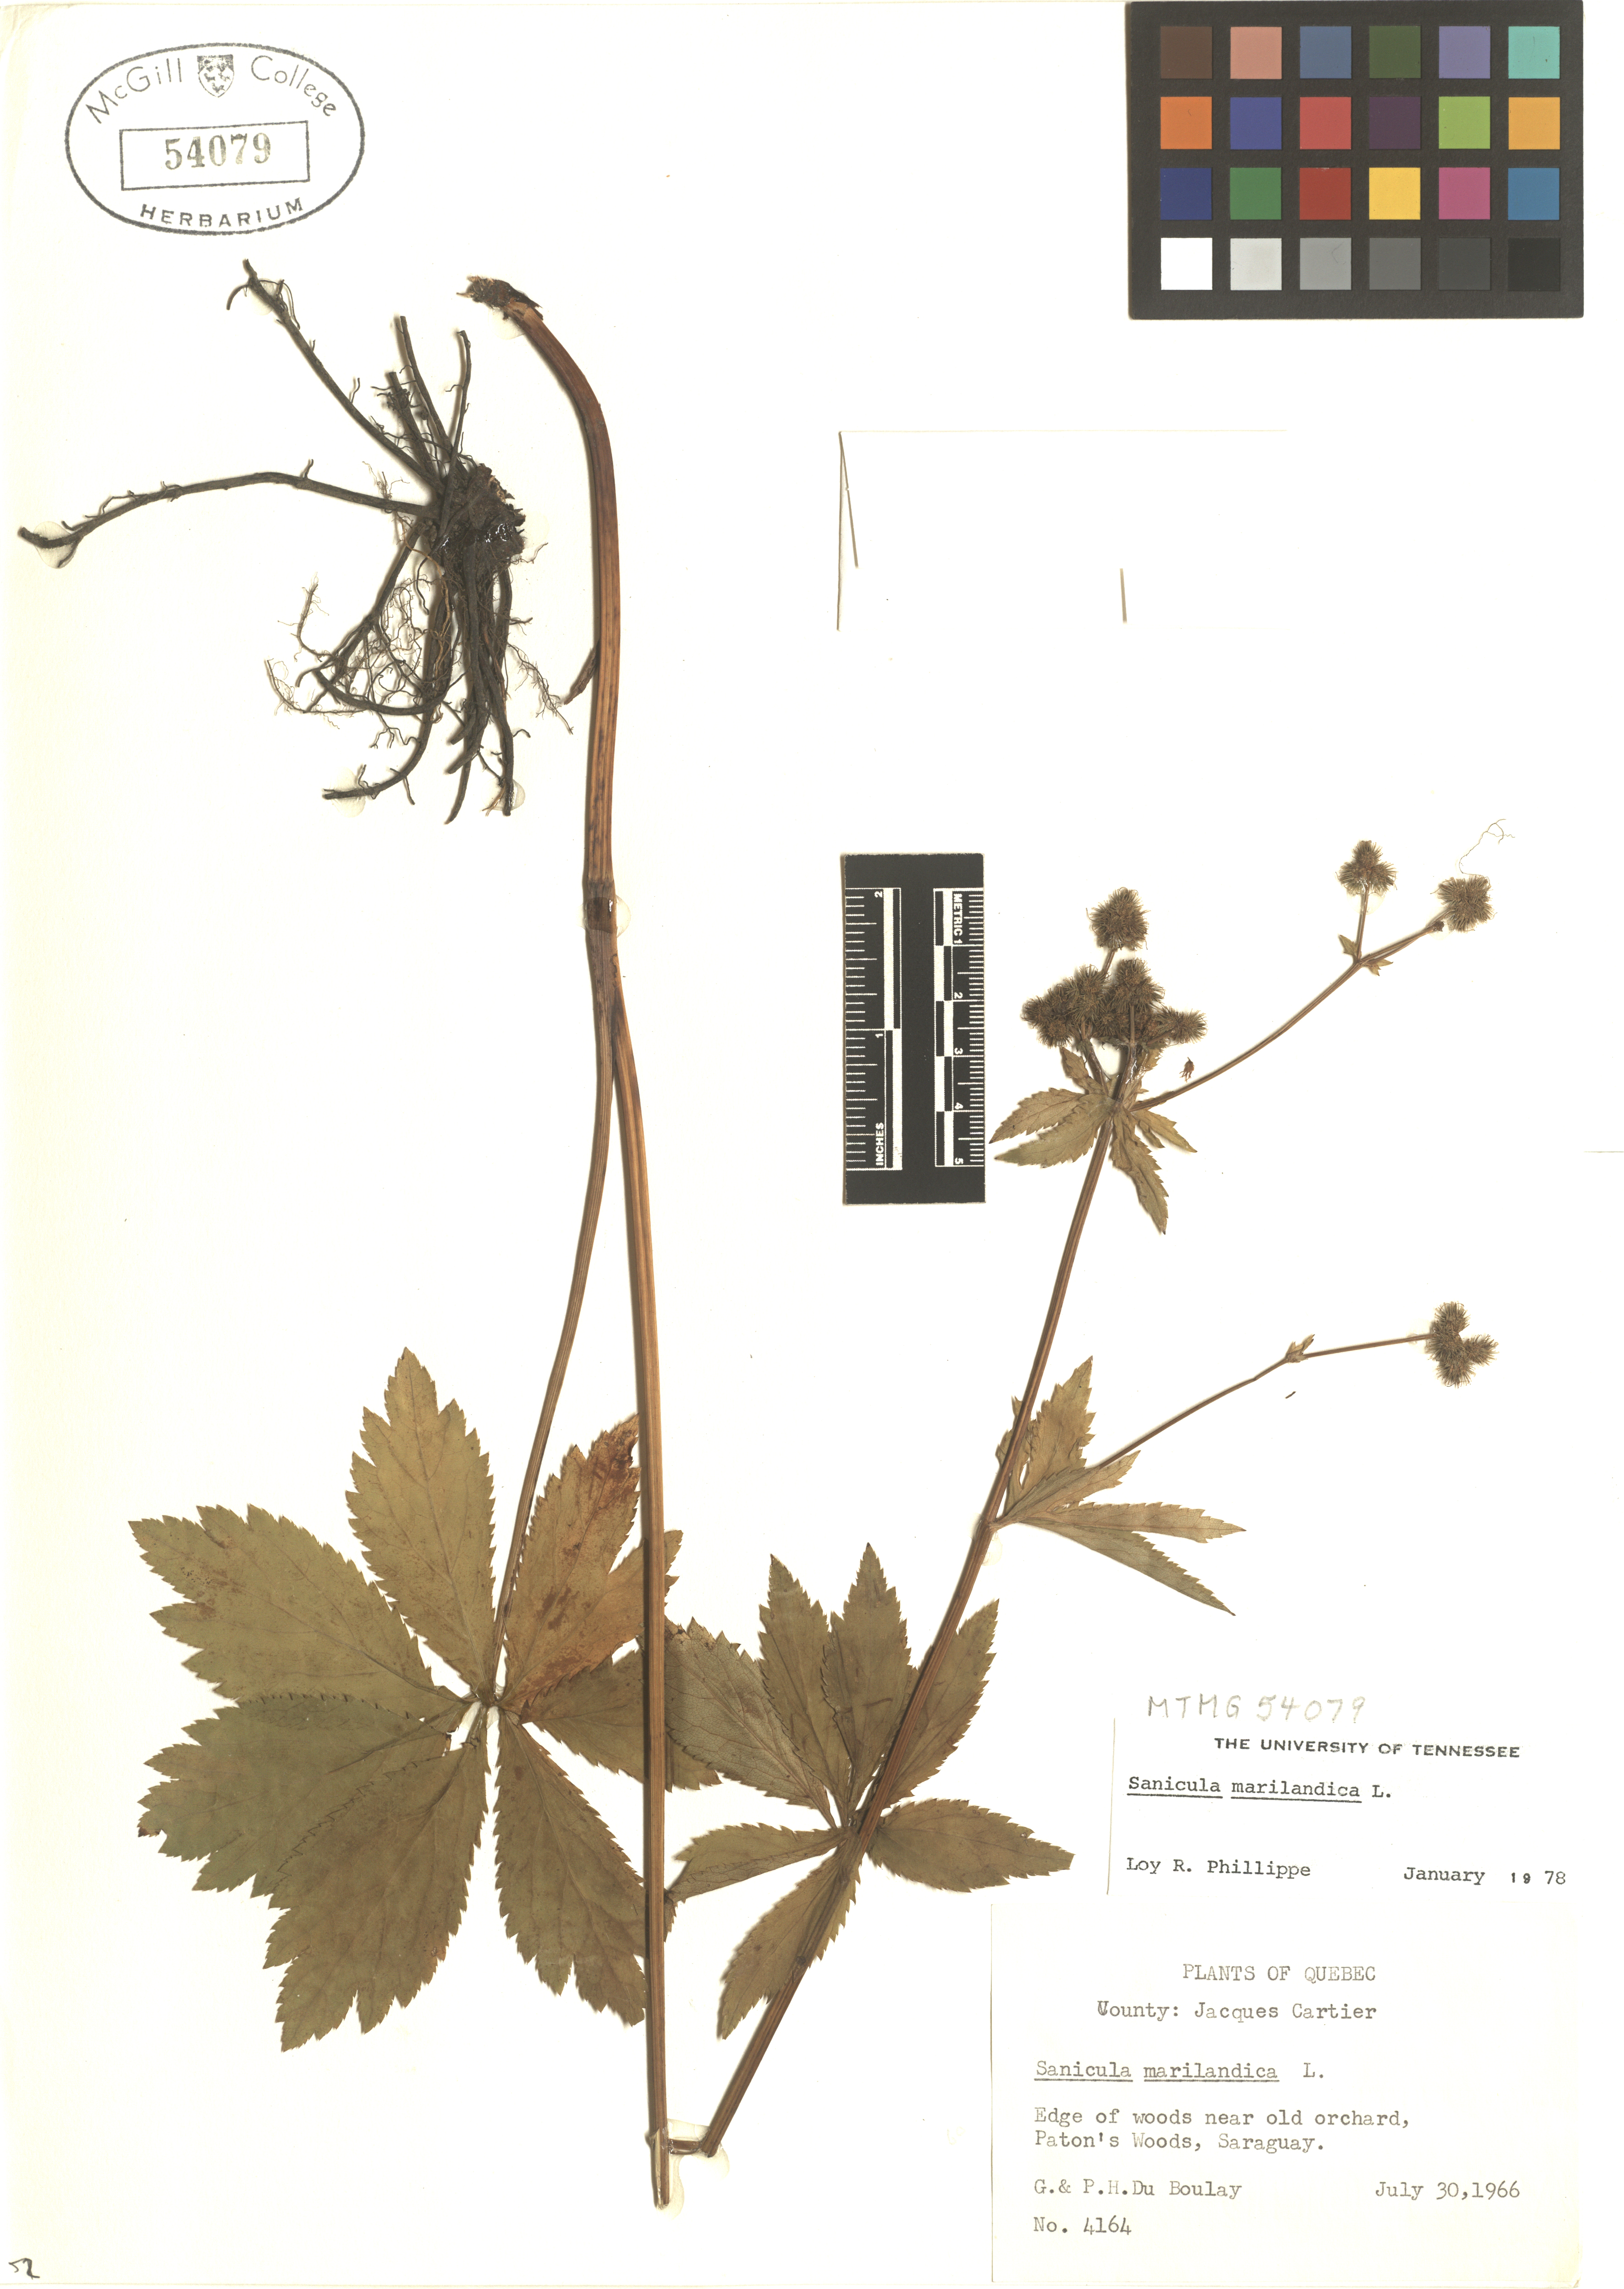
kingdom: Plantae
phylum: Tracheophyta
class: Magnoliopsida
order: Apiales
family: Apiaceae
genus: Sanicula
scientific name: Sanicula marilandica
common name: Black snakeroot
